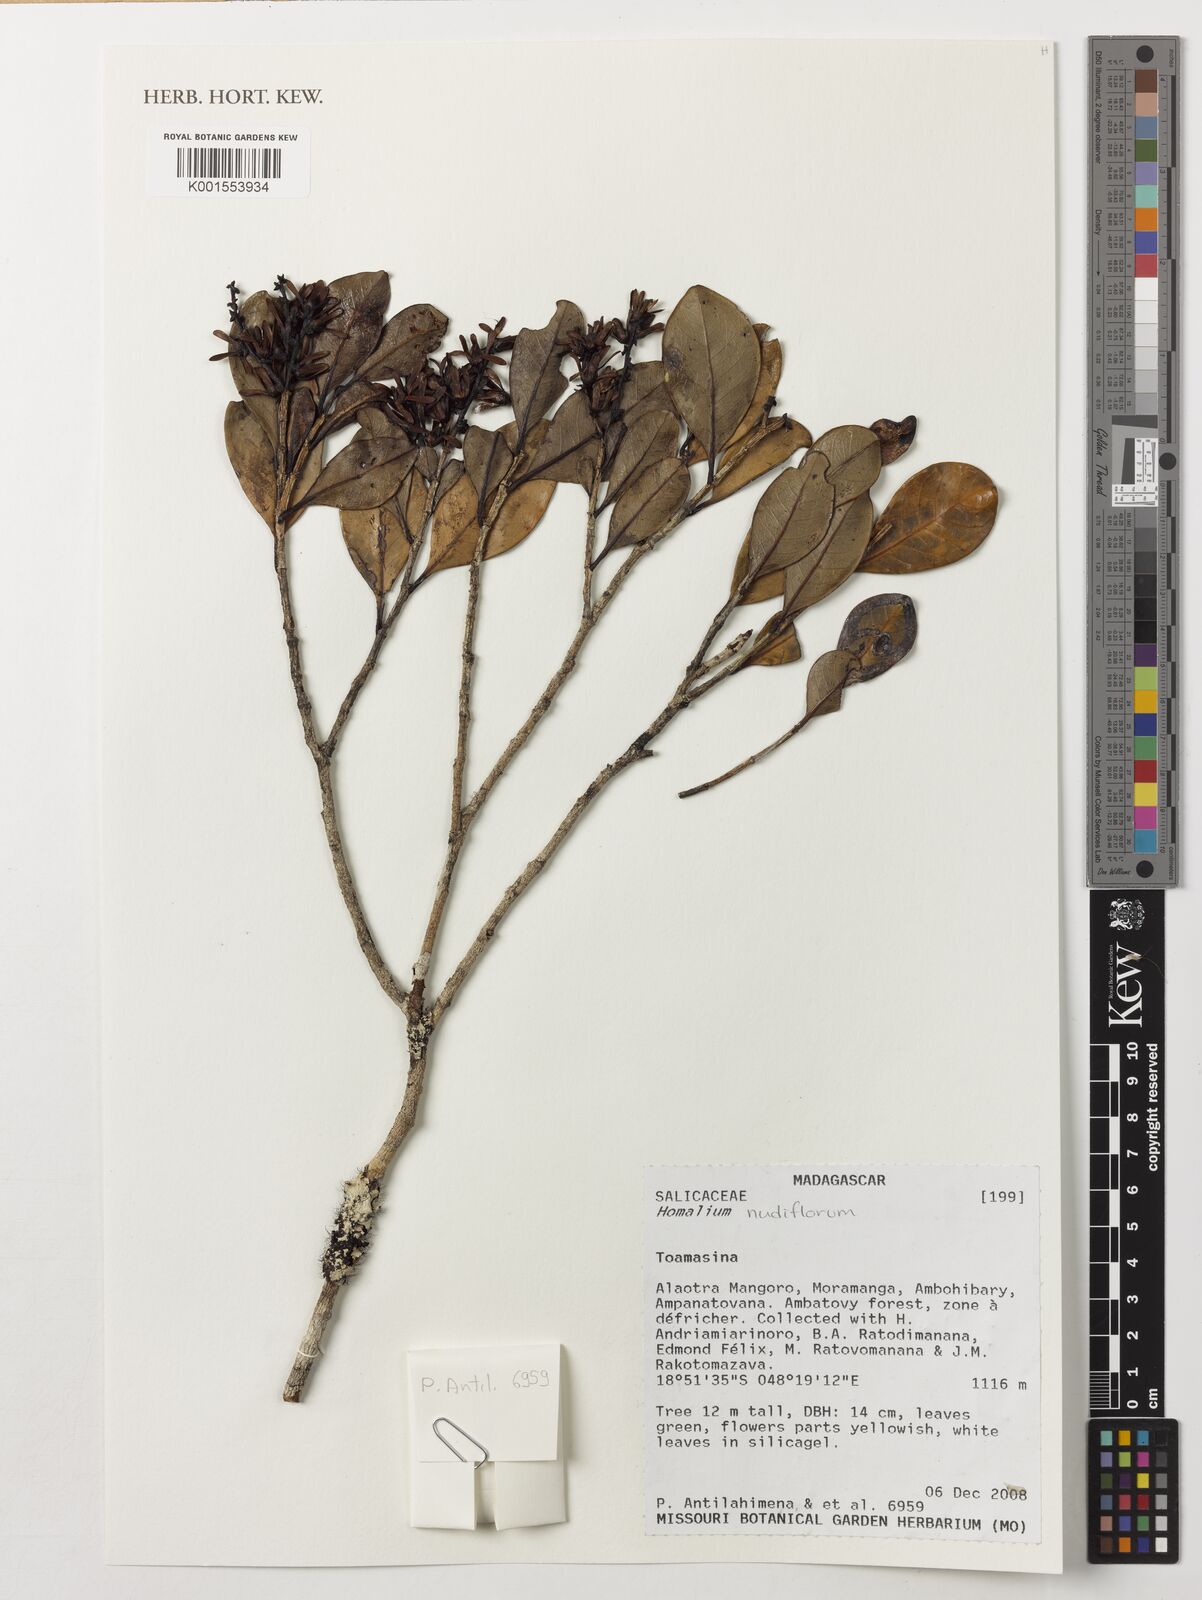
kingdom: Plantae
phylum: Tracheophyta
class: Magnoliopsida
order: Malpighiales
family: Salicaceae
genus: Homalium
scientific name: Homalium nudiflorum
